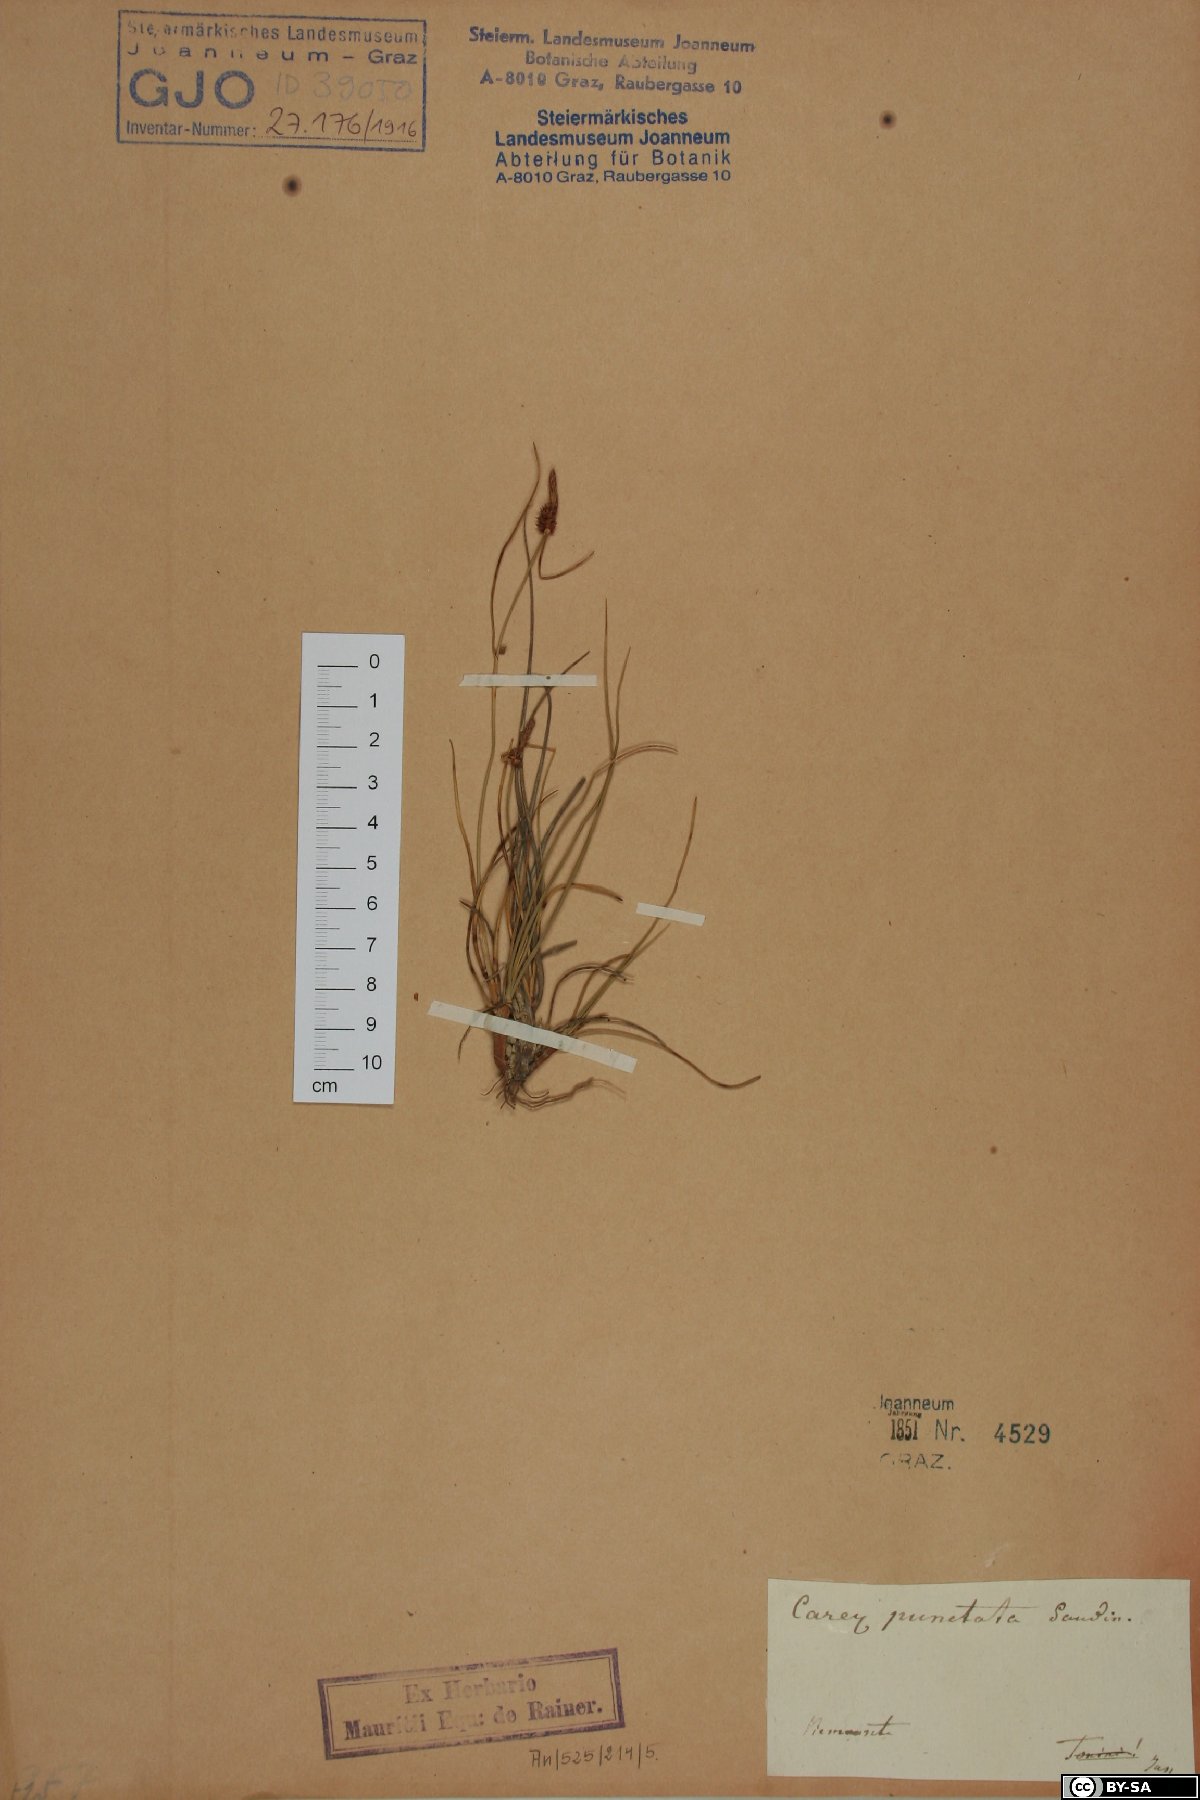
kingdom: Plantae
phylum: Tracheophyta
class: Liliopsida
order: Poales
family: Cyperaceae
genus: Carex
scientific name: Carex punctata
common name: Dotted sedge
